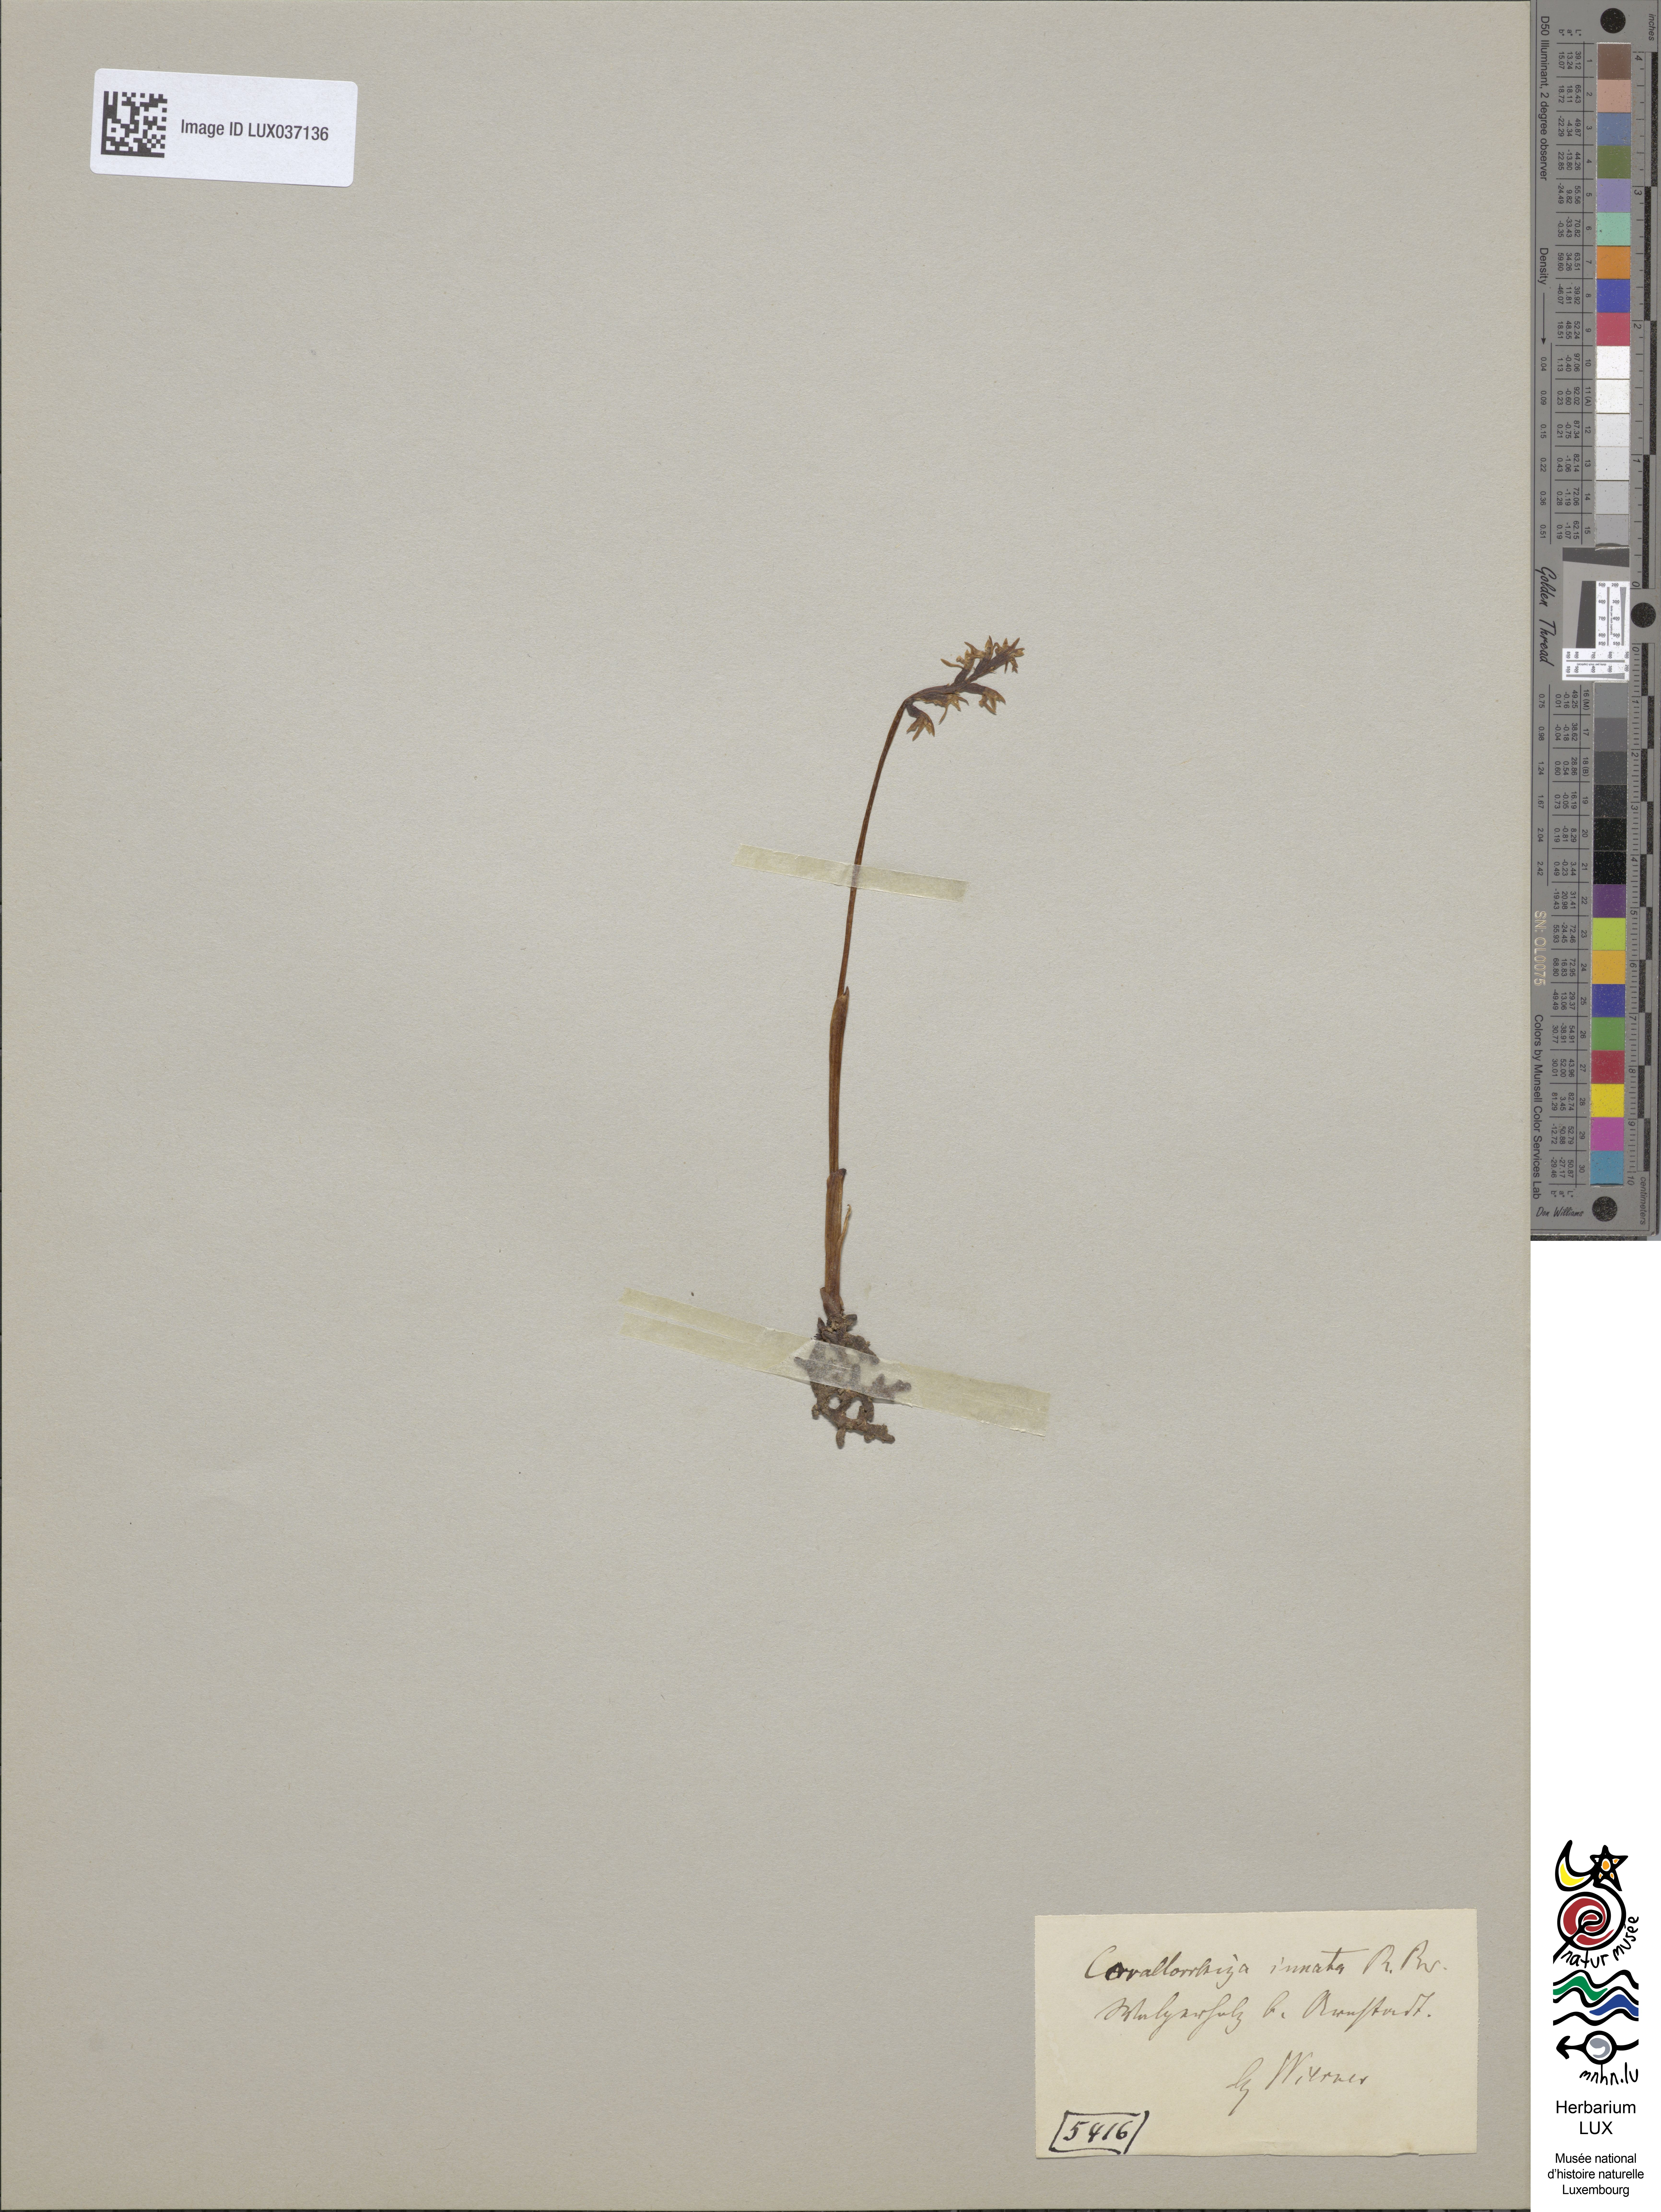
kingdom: Plantae
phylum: Tracheophyta
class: Liliopsida
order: Asparagales
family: Orchidaceae
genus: Corallorhiza
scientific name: Corallorhiza trifida
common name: Yellow coralroot
